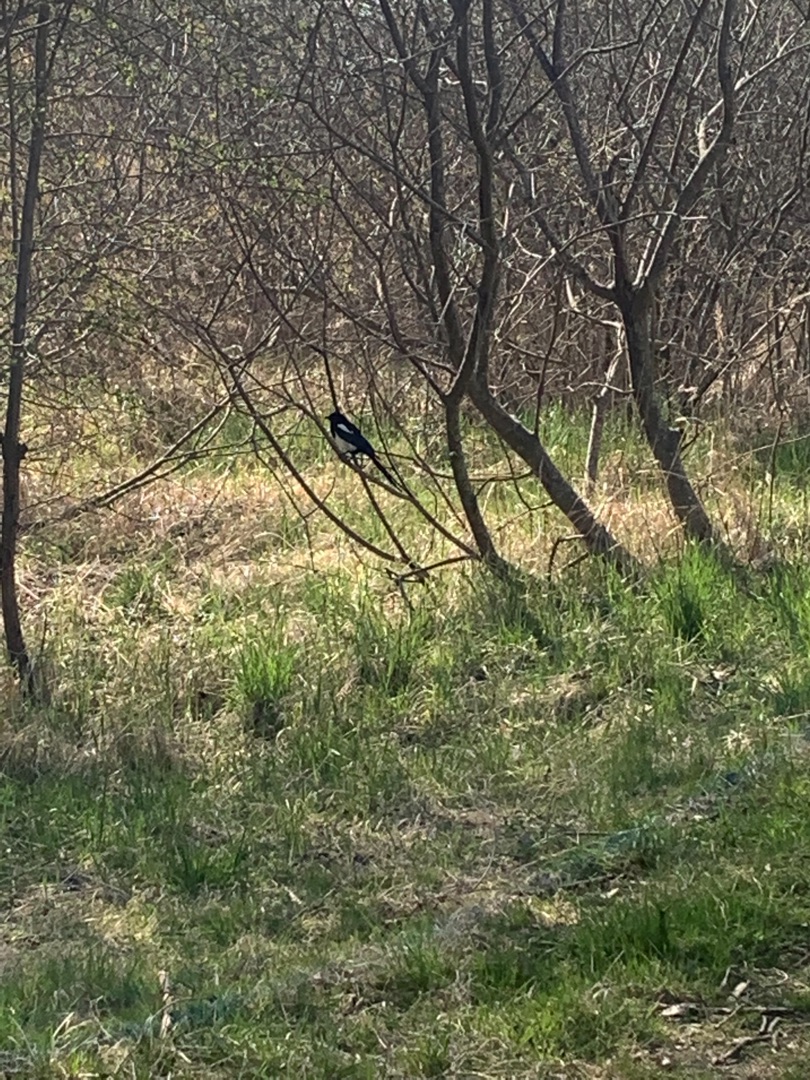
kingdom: Animalia
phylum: Chordata
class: Aves
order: Passeriformes
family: Corvidae
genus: Pica
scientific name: Pica pica
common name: Husskade
